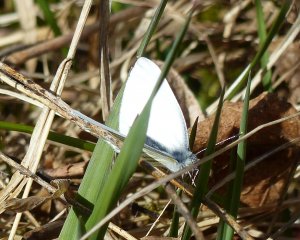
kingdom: Animalia
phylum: Arthropoda
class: Insecta
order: Lepidoptera
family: Pieridae
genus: Pieris
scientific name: Pieris oleracea
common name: Mustard White
